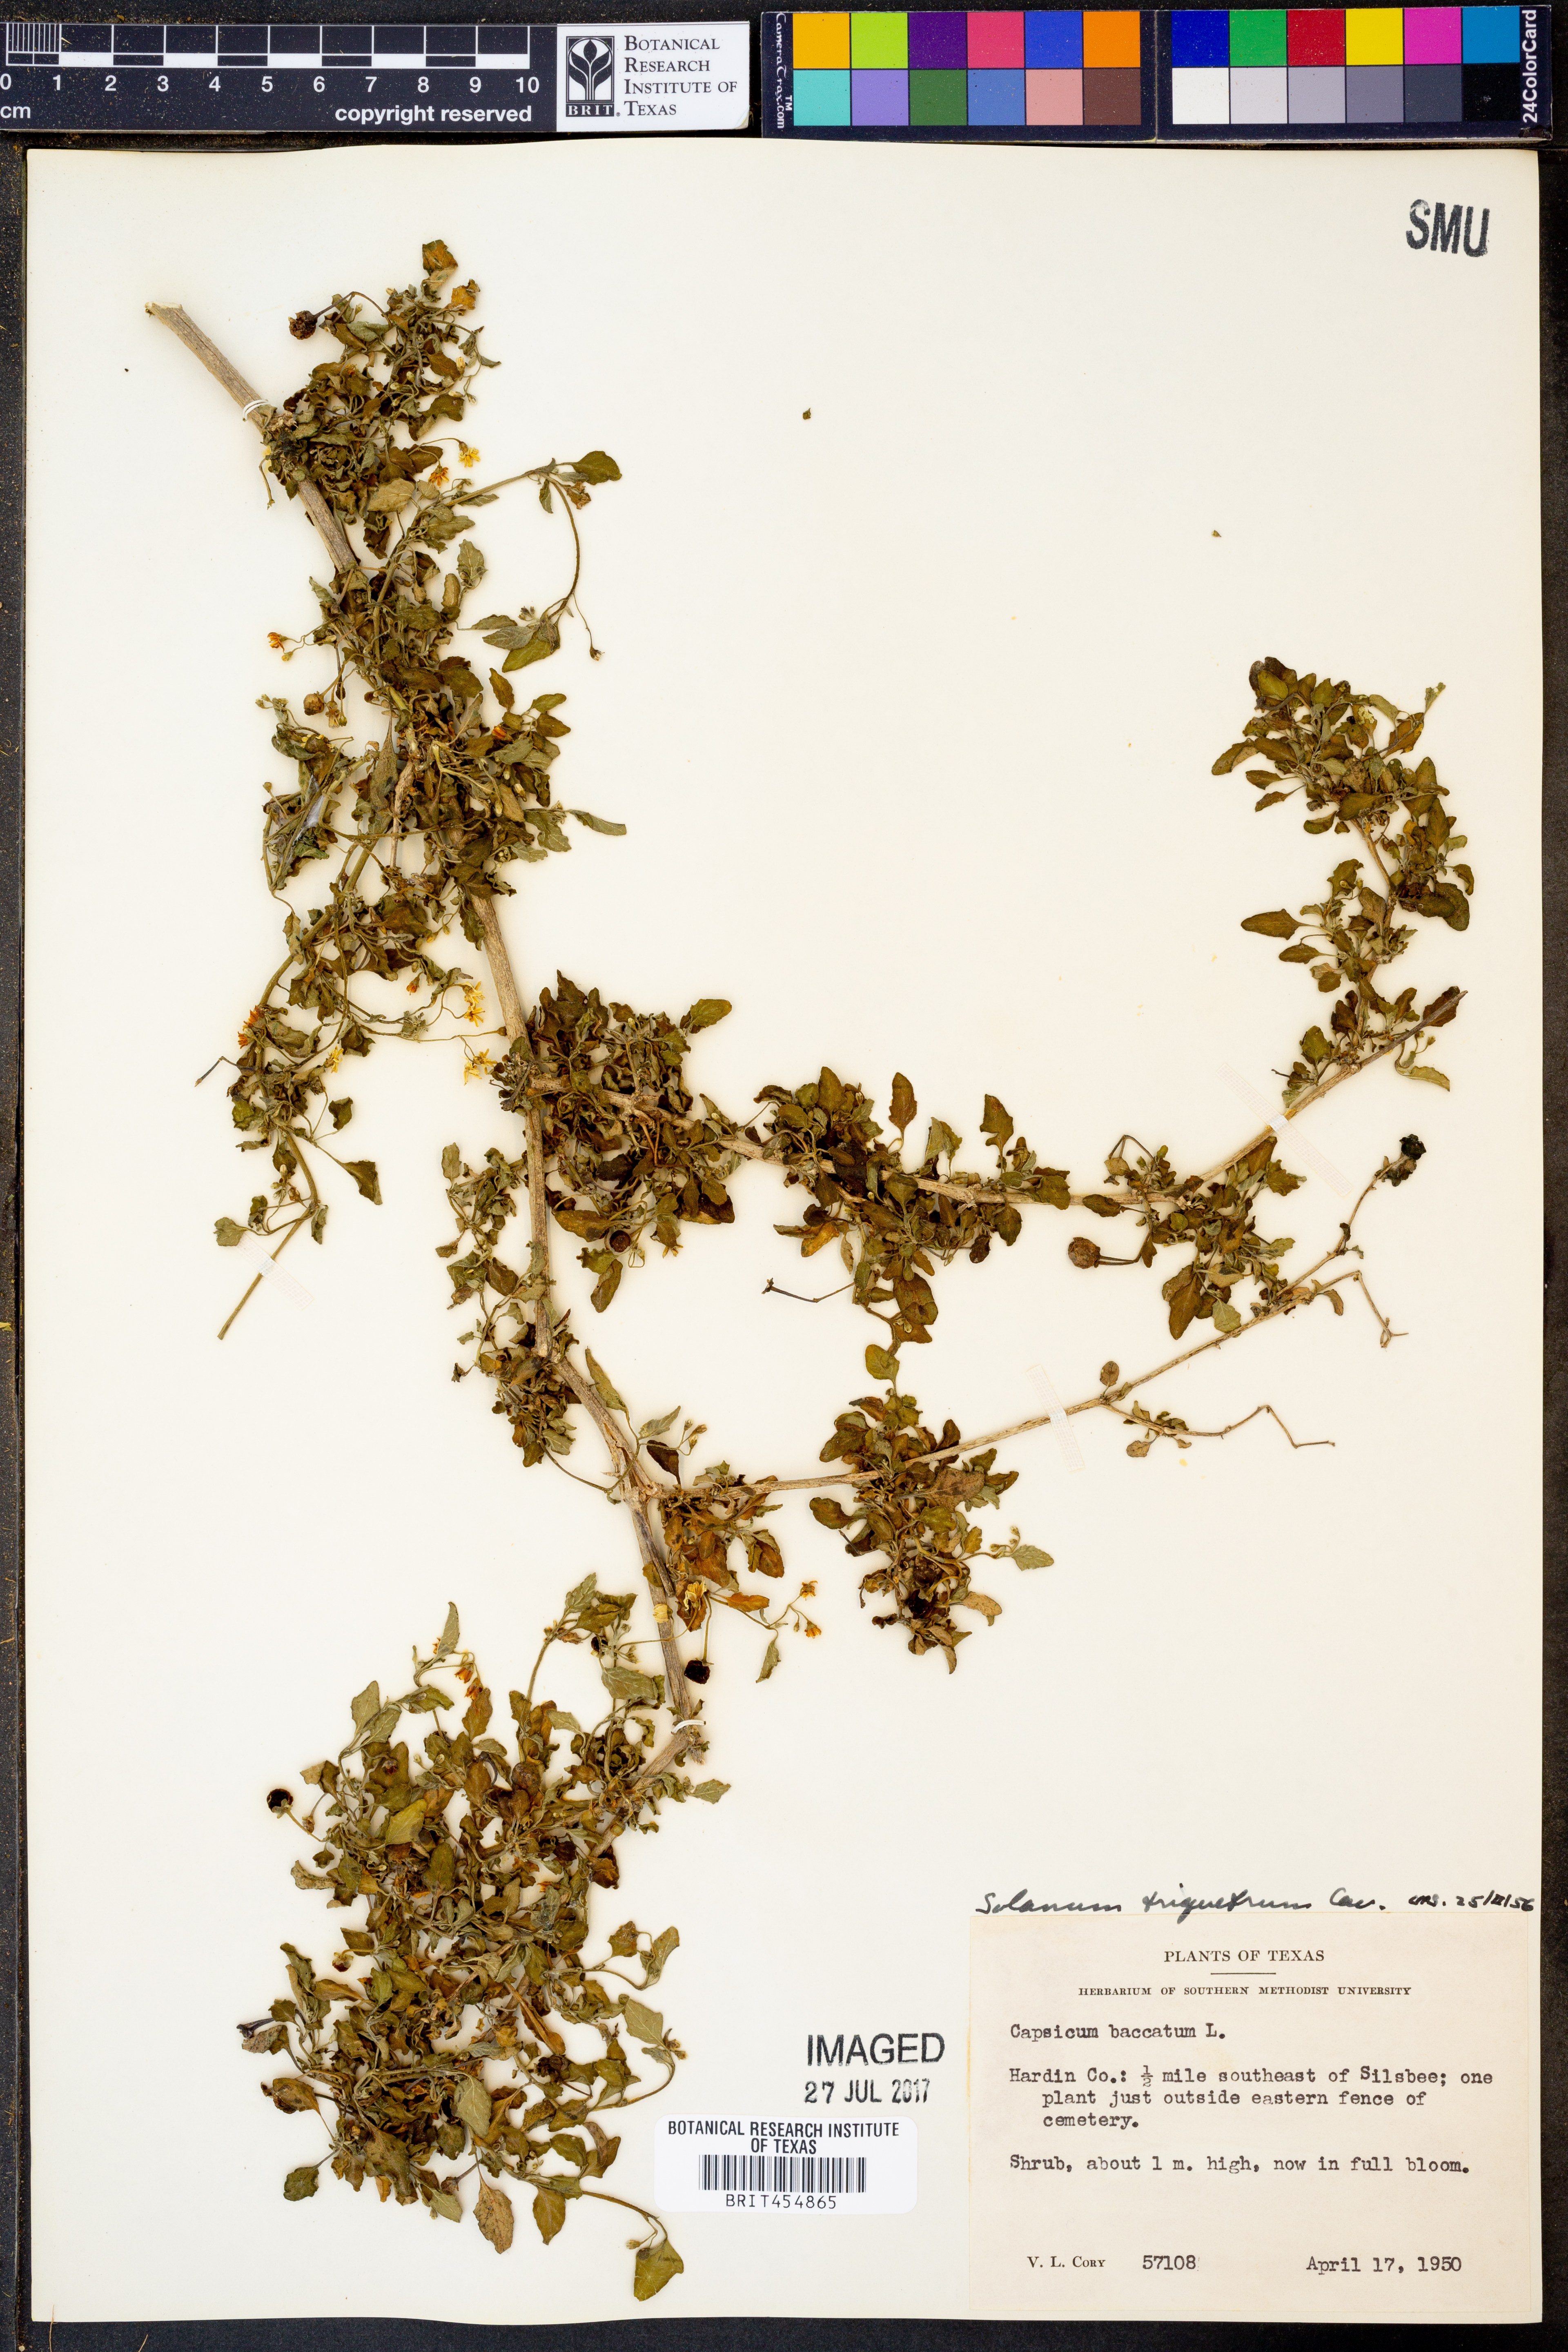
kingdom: Plantae
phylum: Tracheophyta
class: Magnoliopsida
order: Solanales
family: Solanaceae
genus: Solanum
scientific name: Solanum triquetrum
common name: Texas nightshade
